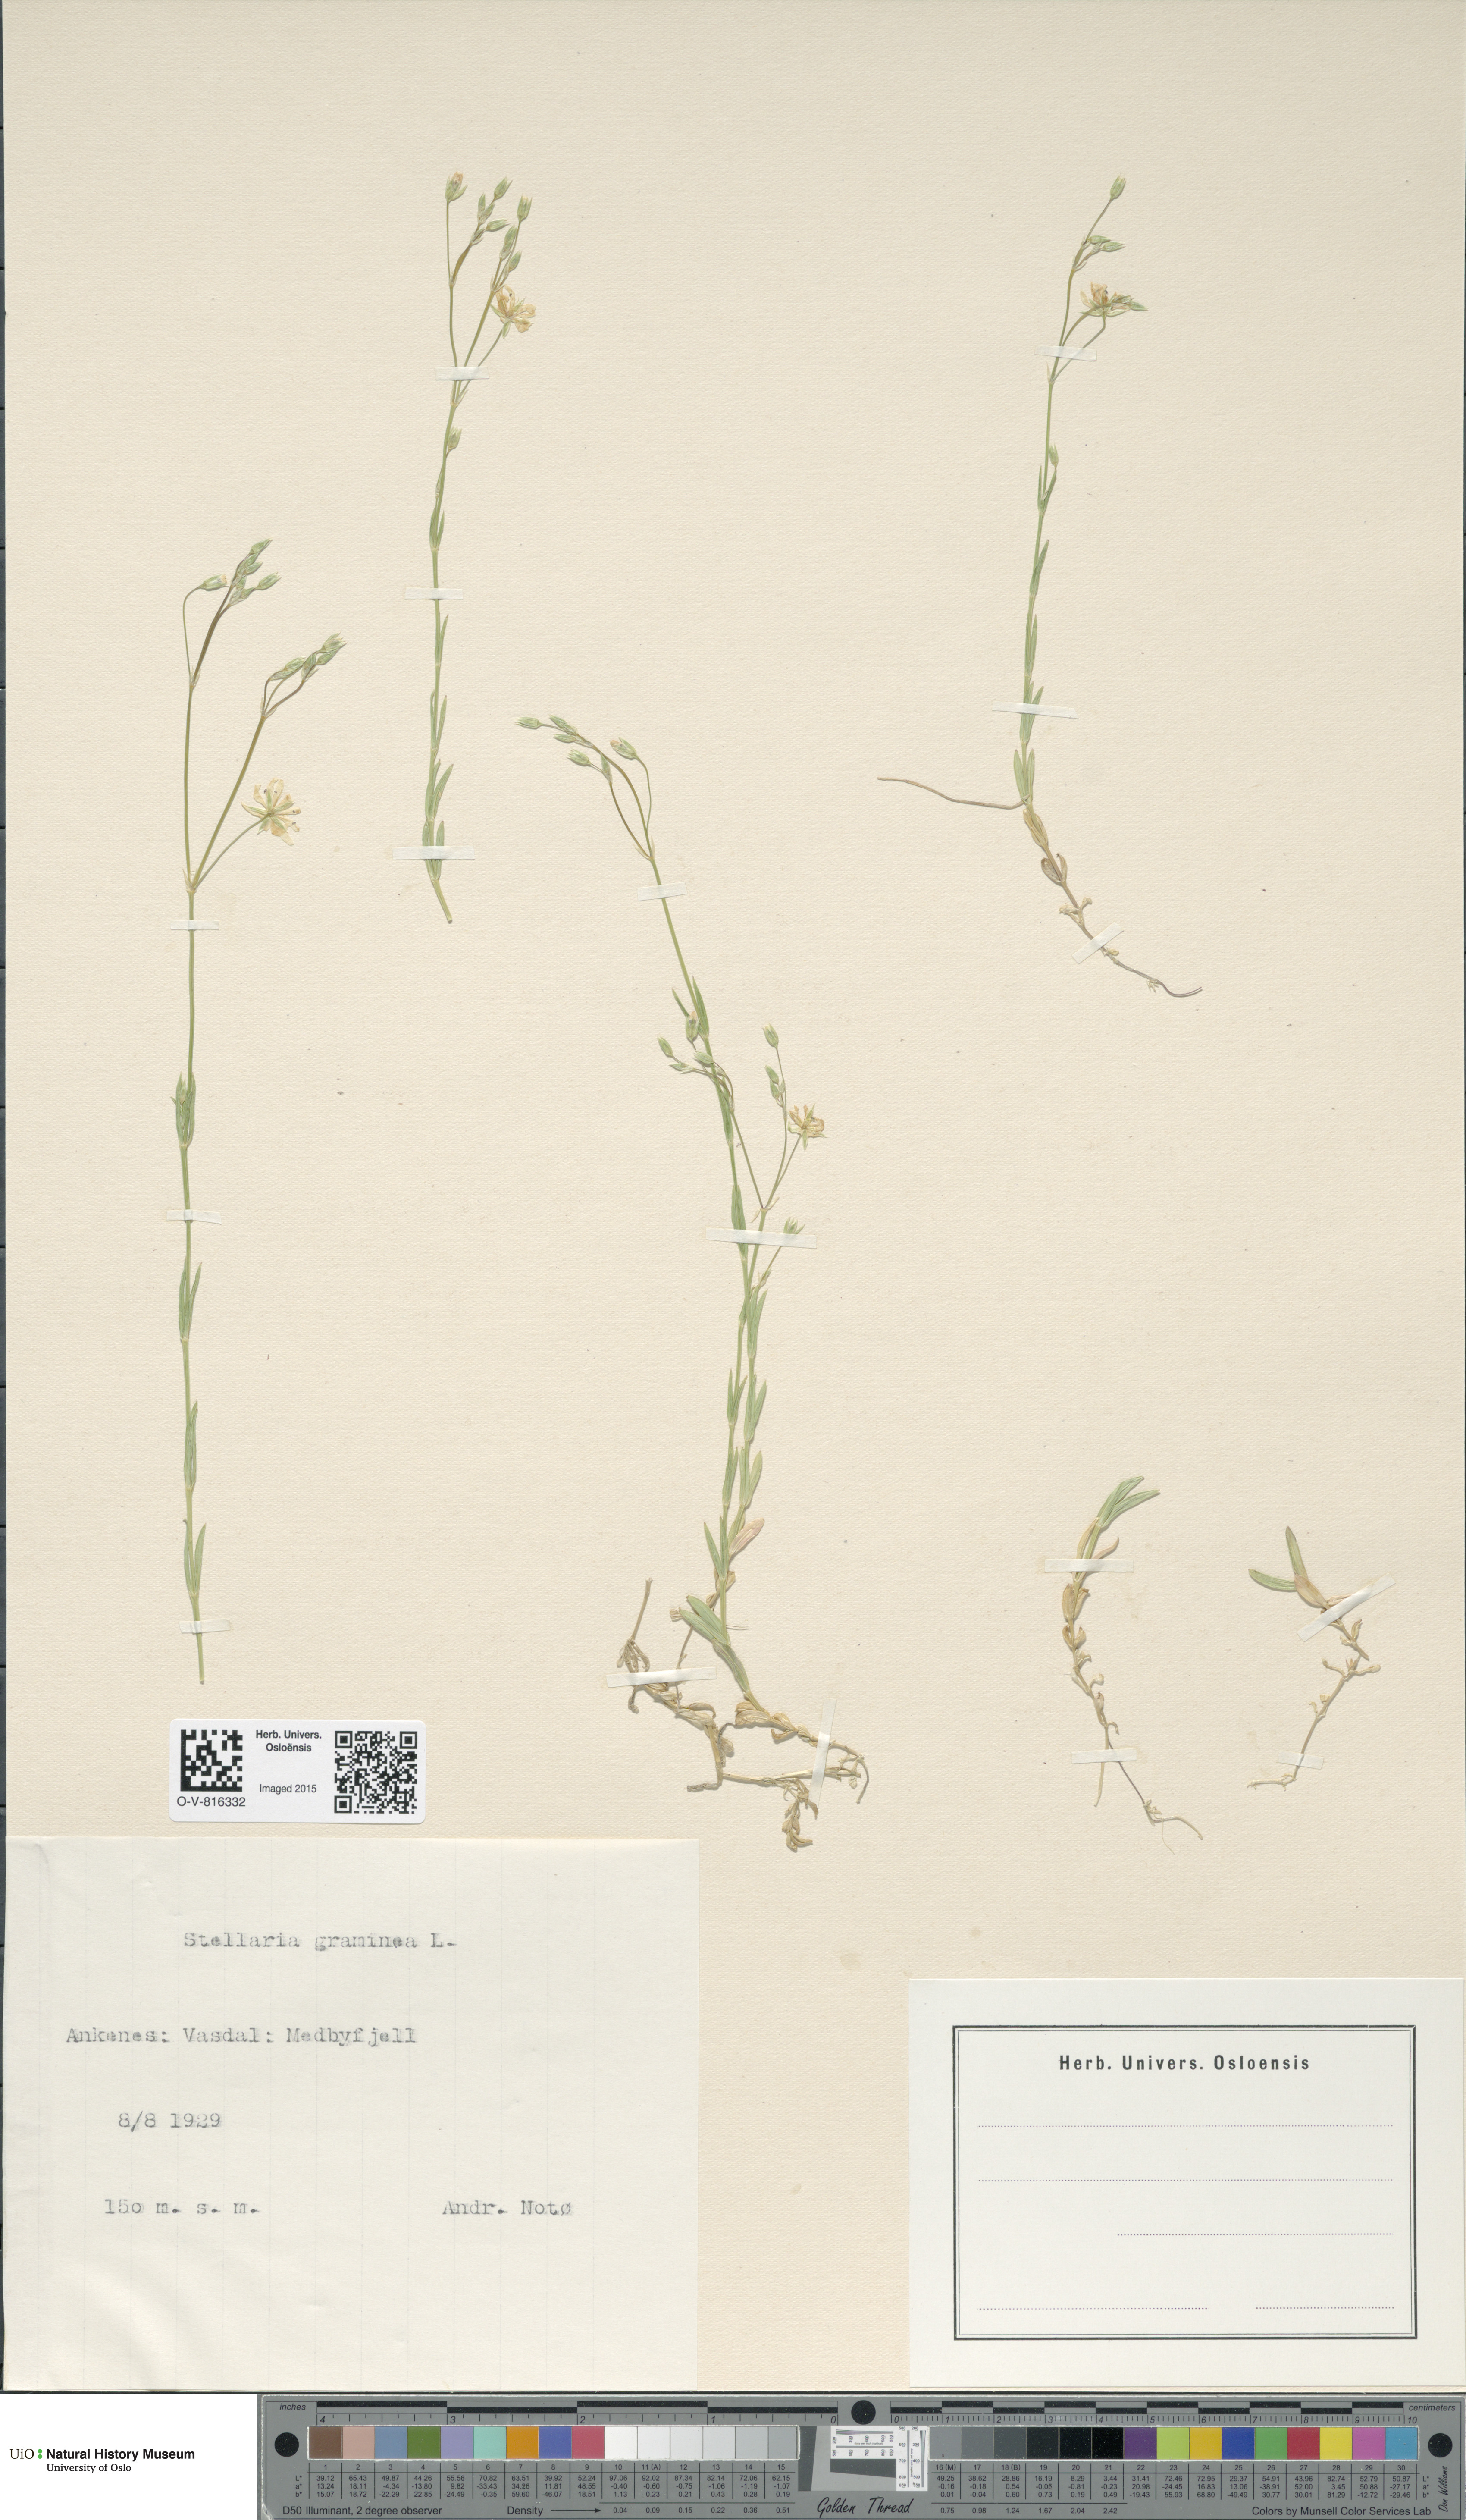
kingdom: Plantae
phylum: Tracheophyta
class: Magnoliopsida
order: Caryophyllales
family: Caryophyllaceae
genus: Stellaria
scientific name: Stellaria graminea
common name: Grass-like starwort
